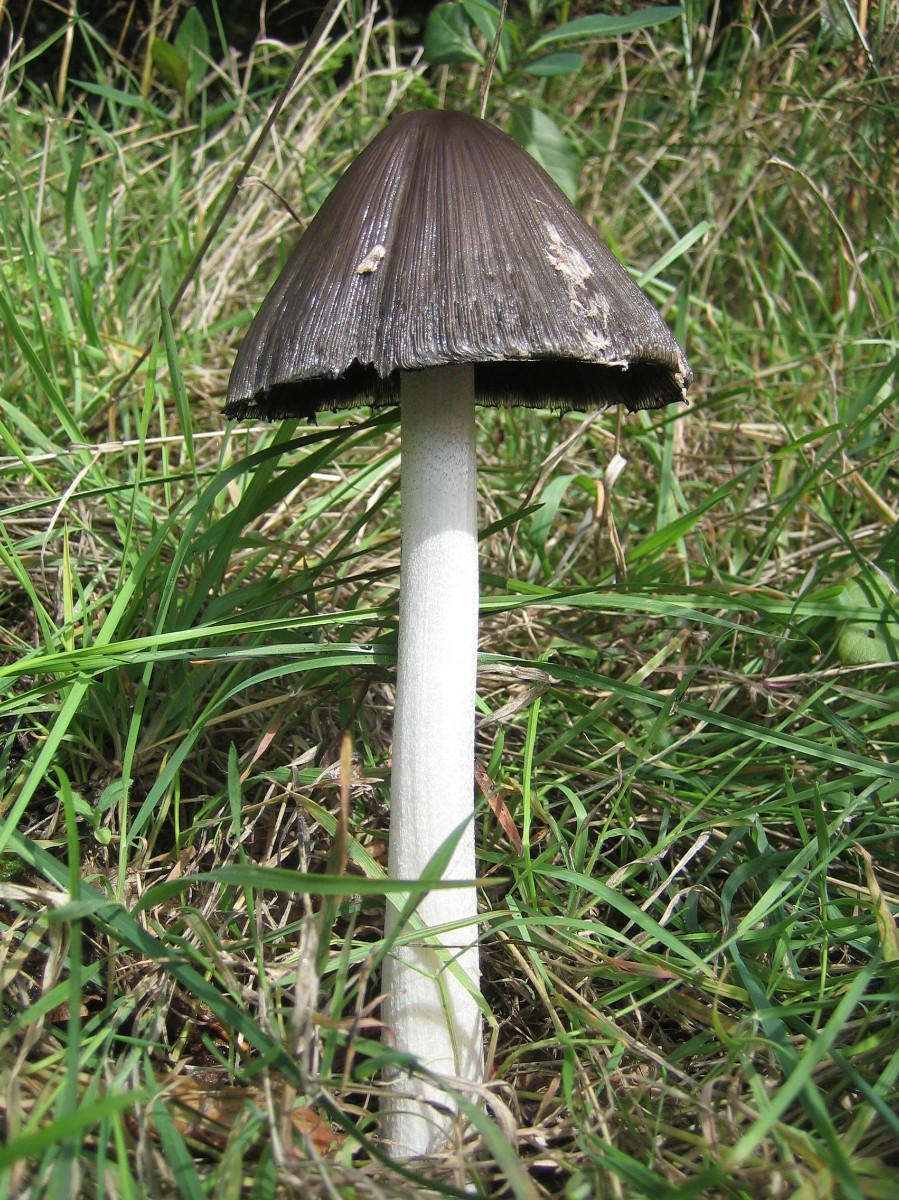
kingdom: Fungi
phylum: Basidiomycota
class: Agaricomycetes
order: Agaricales
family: Psathyrellaceae
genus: Coprinopsis
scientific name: Coprinopsis picacea
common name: skade-blækhat
